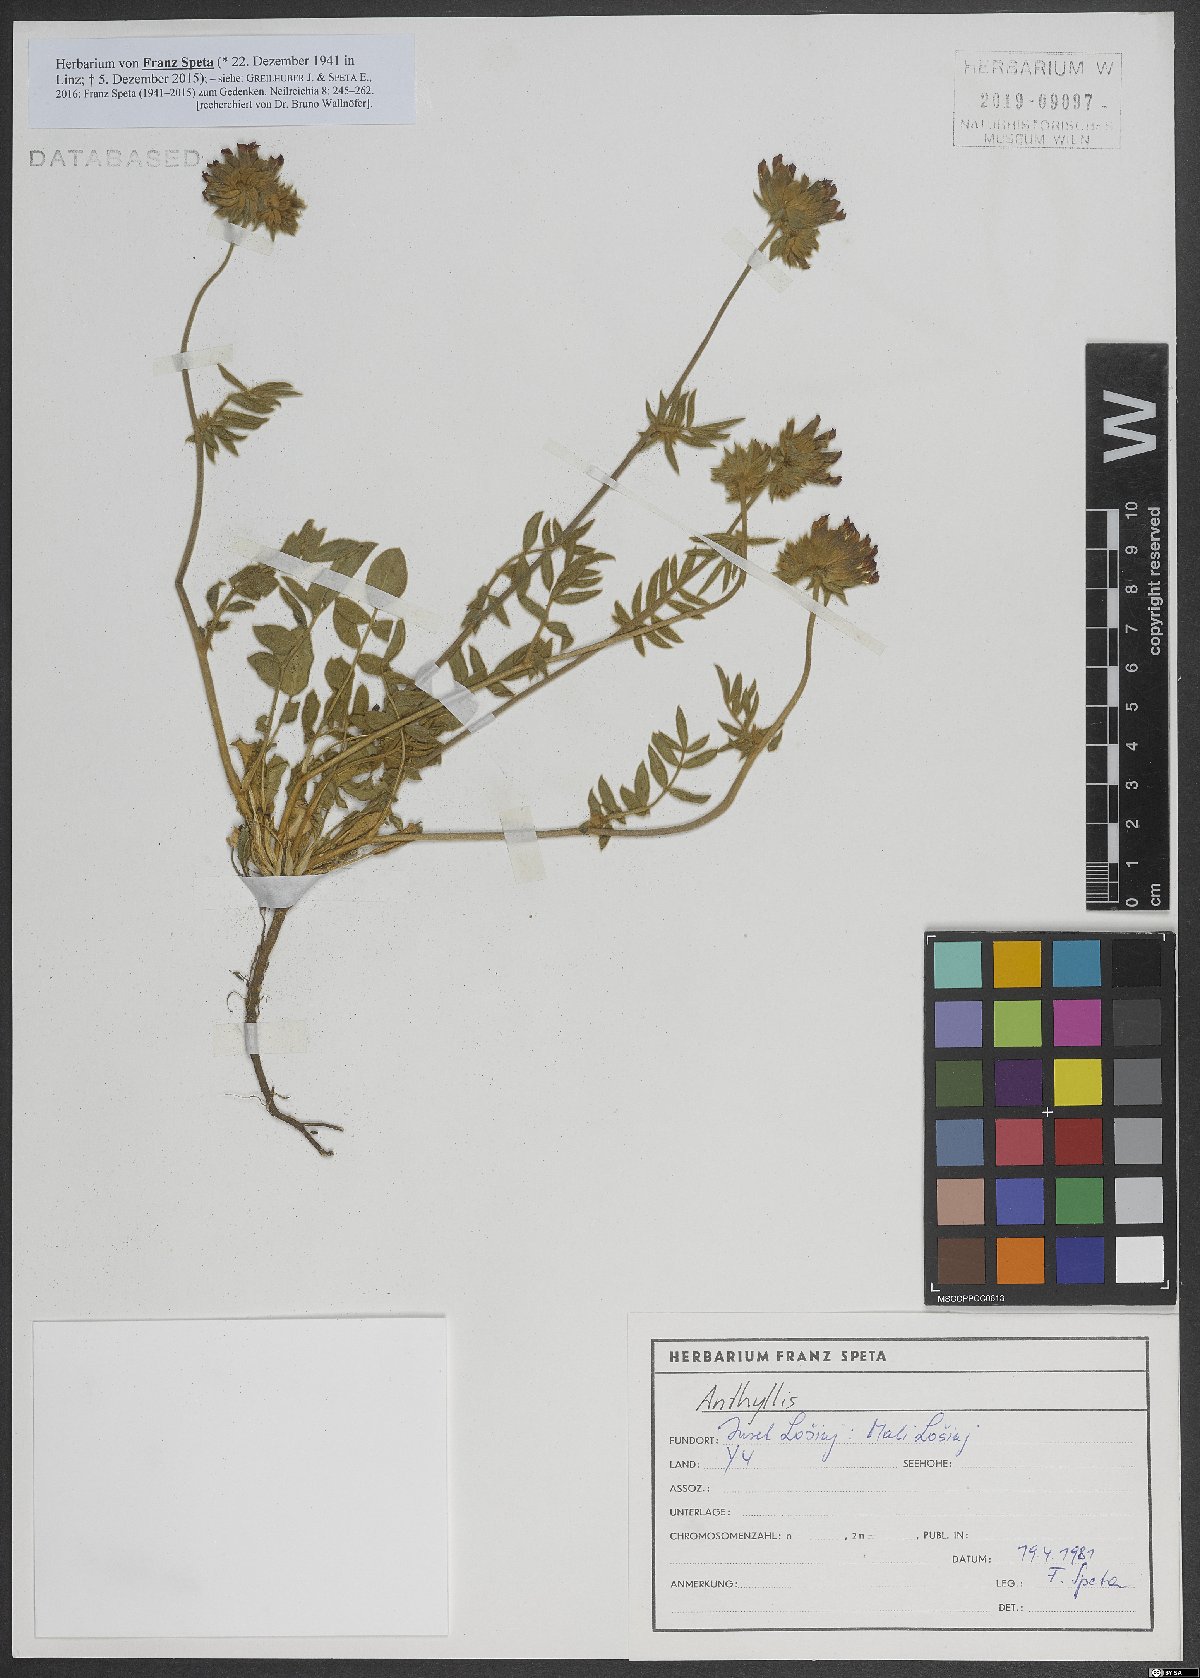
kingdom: Plantae
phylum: Tracheophyta
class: Magnoliopsida
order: Fabales
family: Fabaceae
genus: Anthyllis
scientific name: Anthyllis
